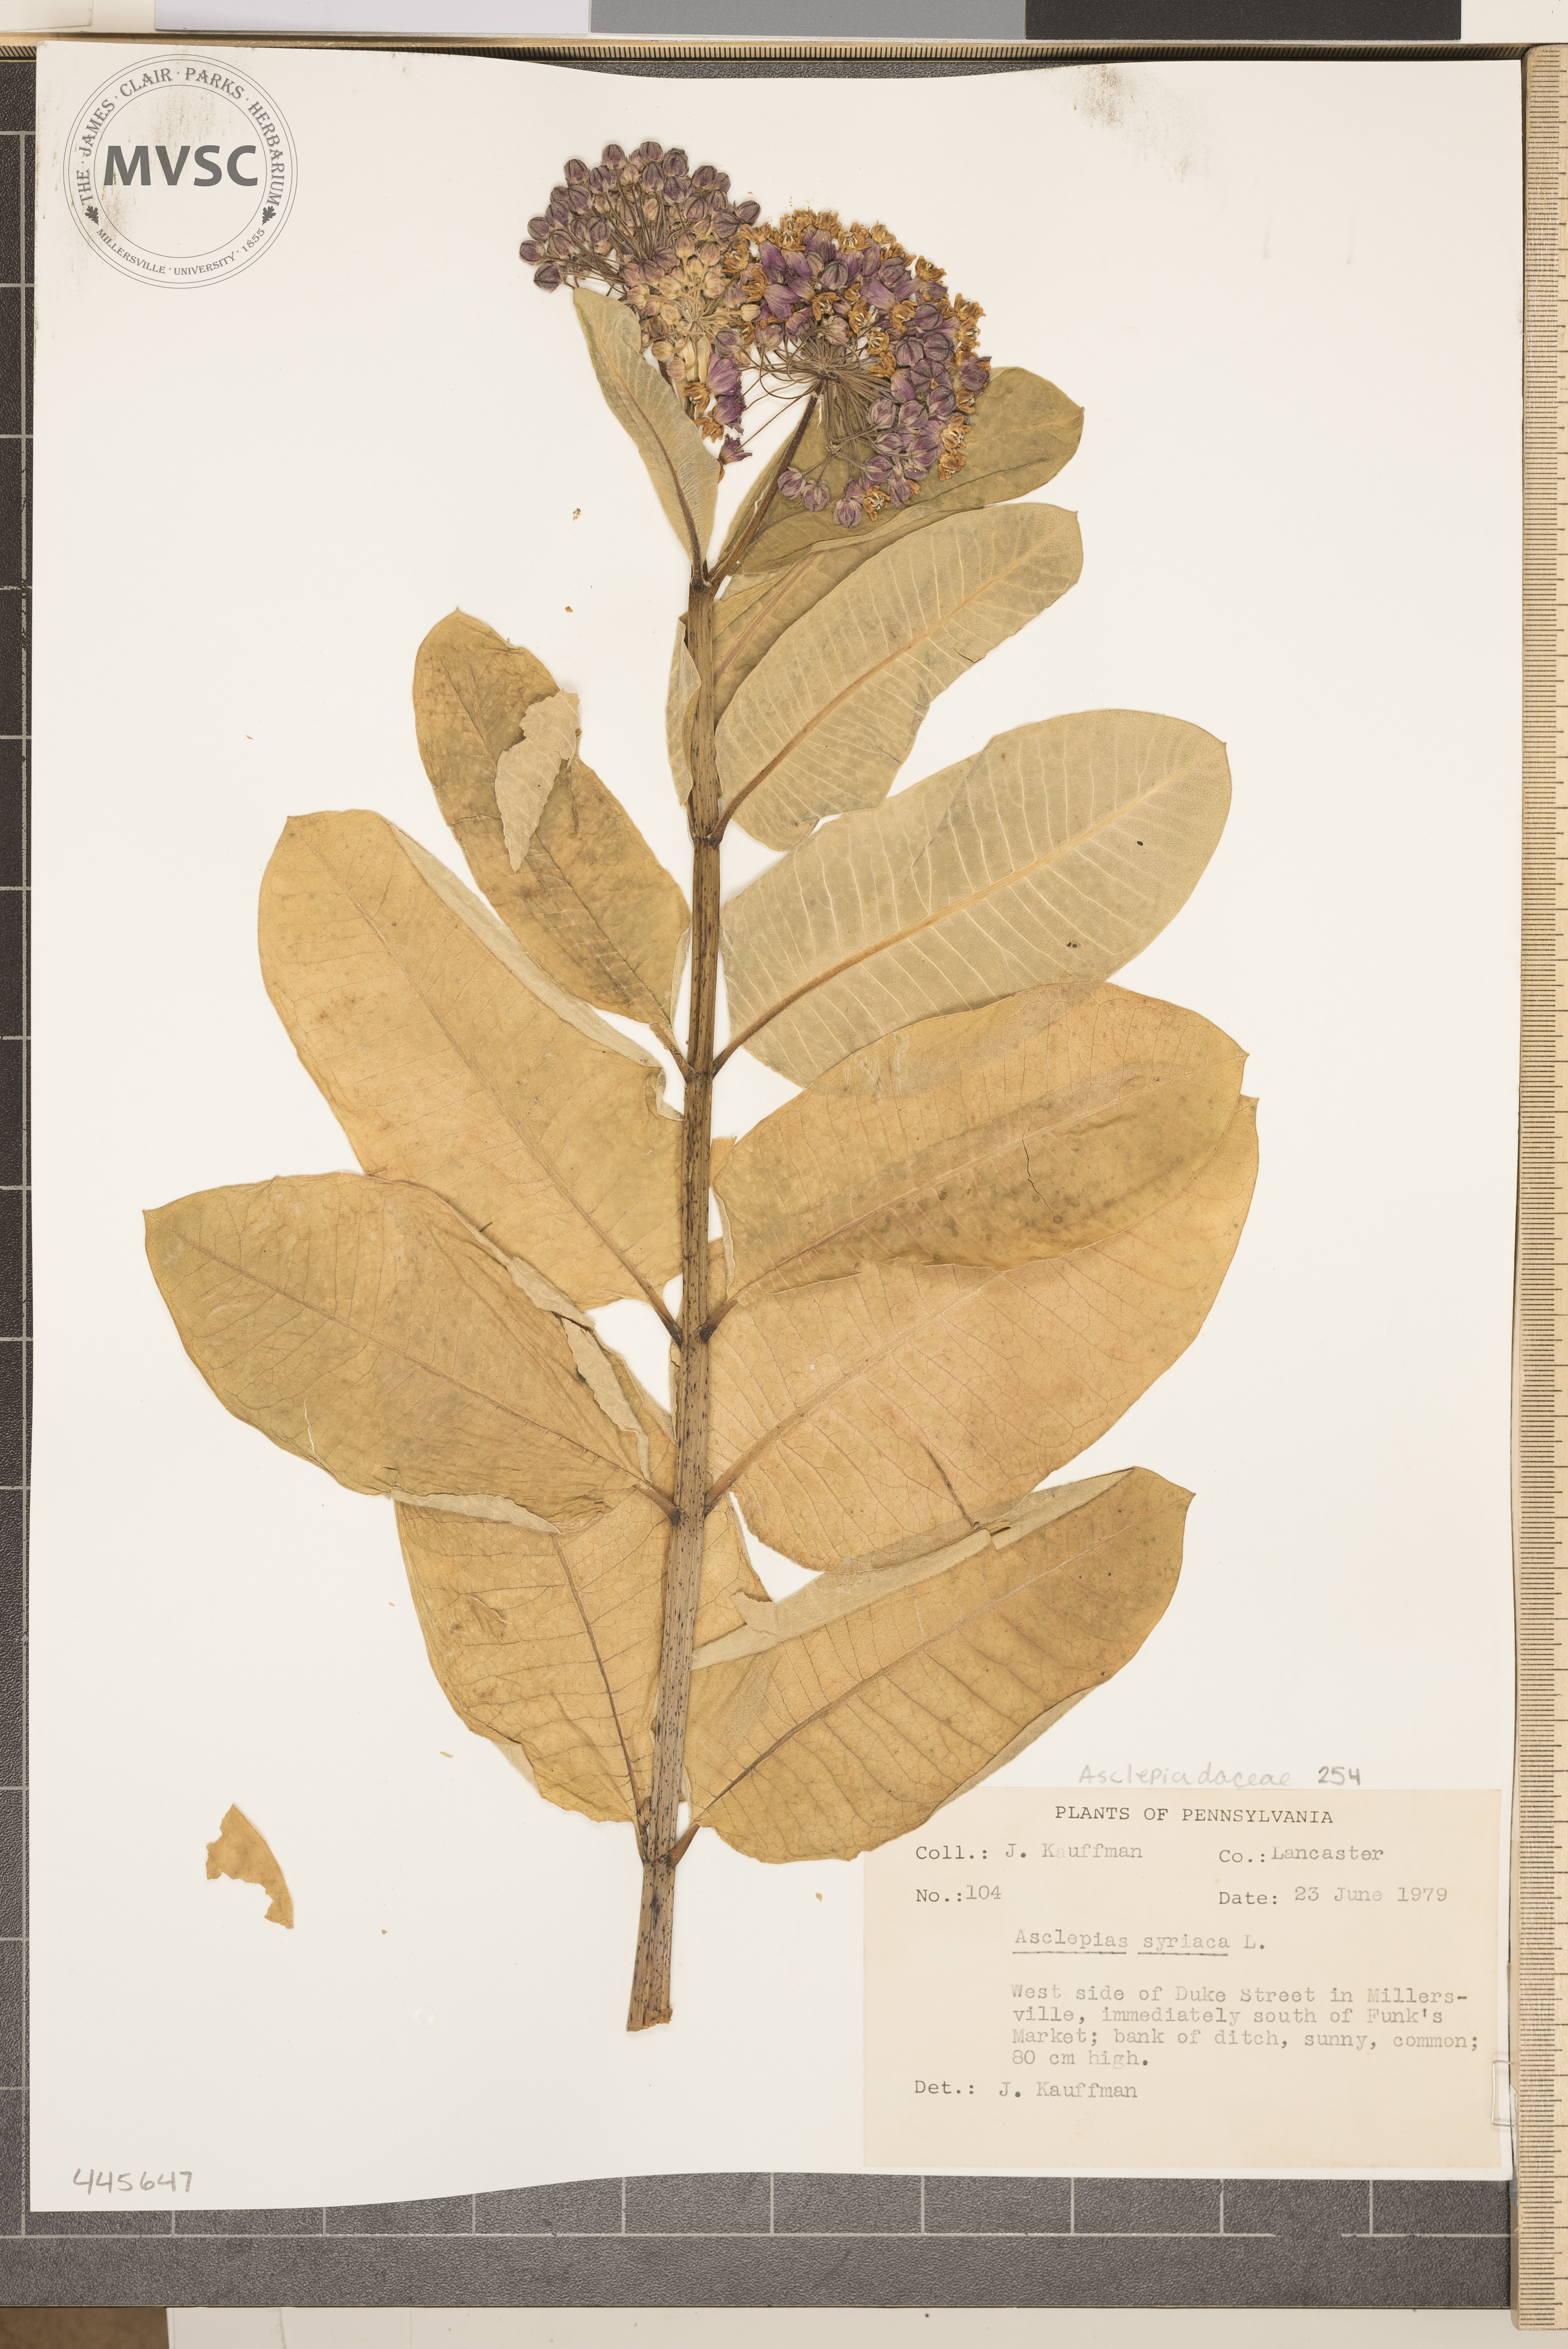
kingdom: Plantae
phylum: Tracheophyta
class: Magnoliopsida
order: Gentianales
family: Apocynaceae
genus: Asclepias
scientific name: Asclepias syriaca
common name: Common milkweed
